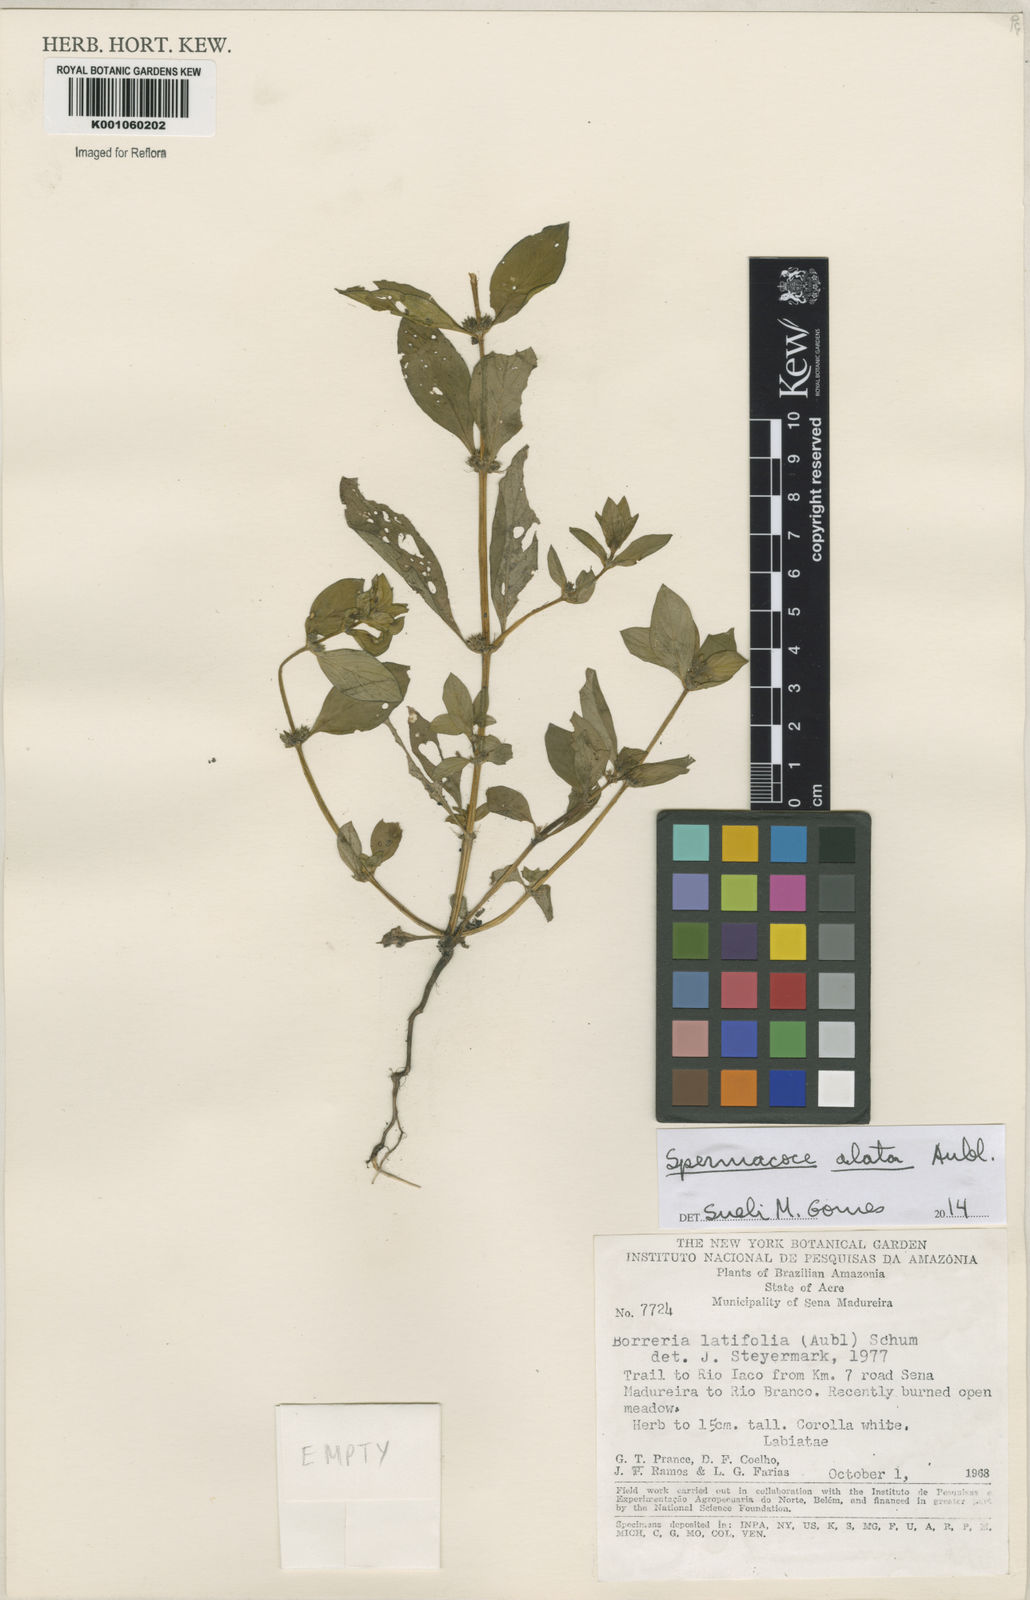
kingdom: Plantae
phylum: Tracheophyta
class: Magnoliopsida
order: Gentianales
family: Rubiaceae
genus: Spermacoce
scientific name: Spermacoce
